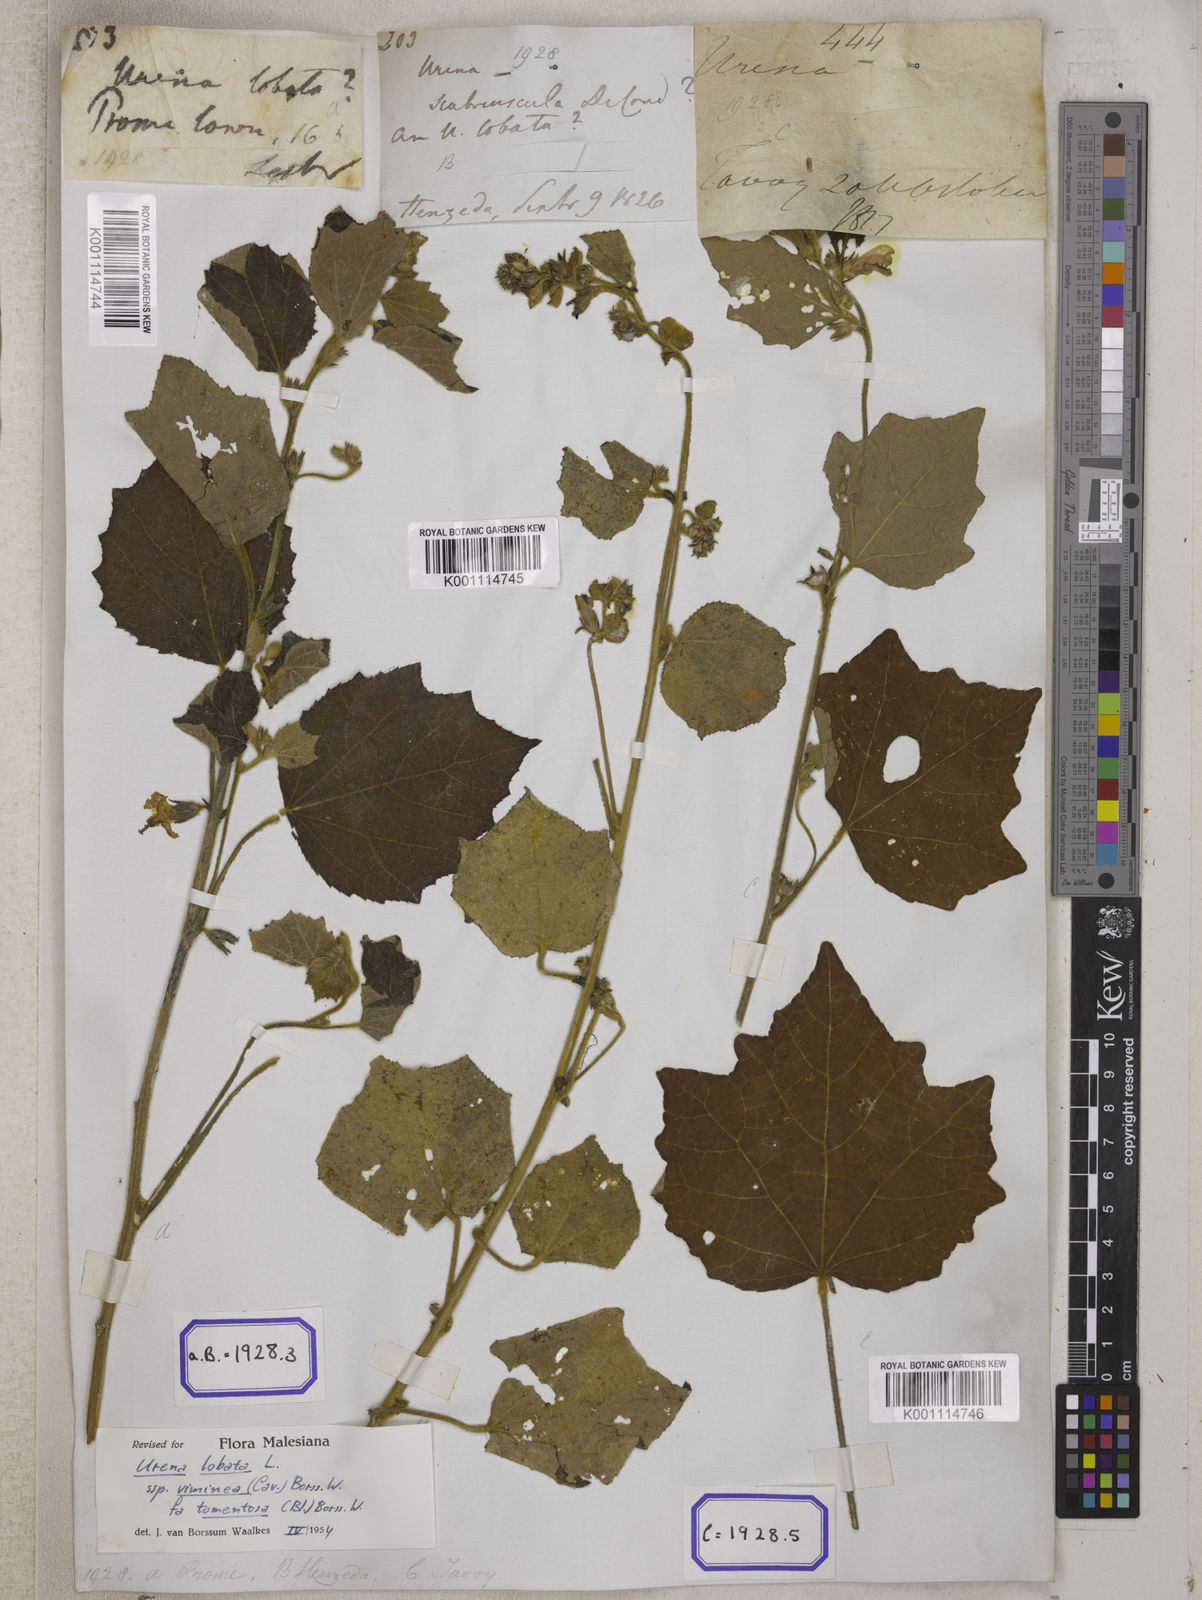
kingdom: Plantae
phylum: Tracheophyta
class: Magnoliopsida
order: Malvales
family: Malvaceae
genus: Urena
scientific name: Urena lobata
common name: Caesarweed
